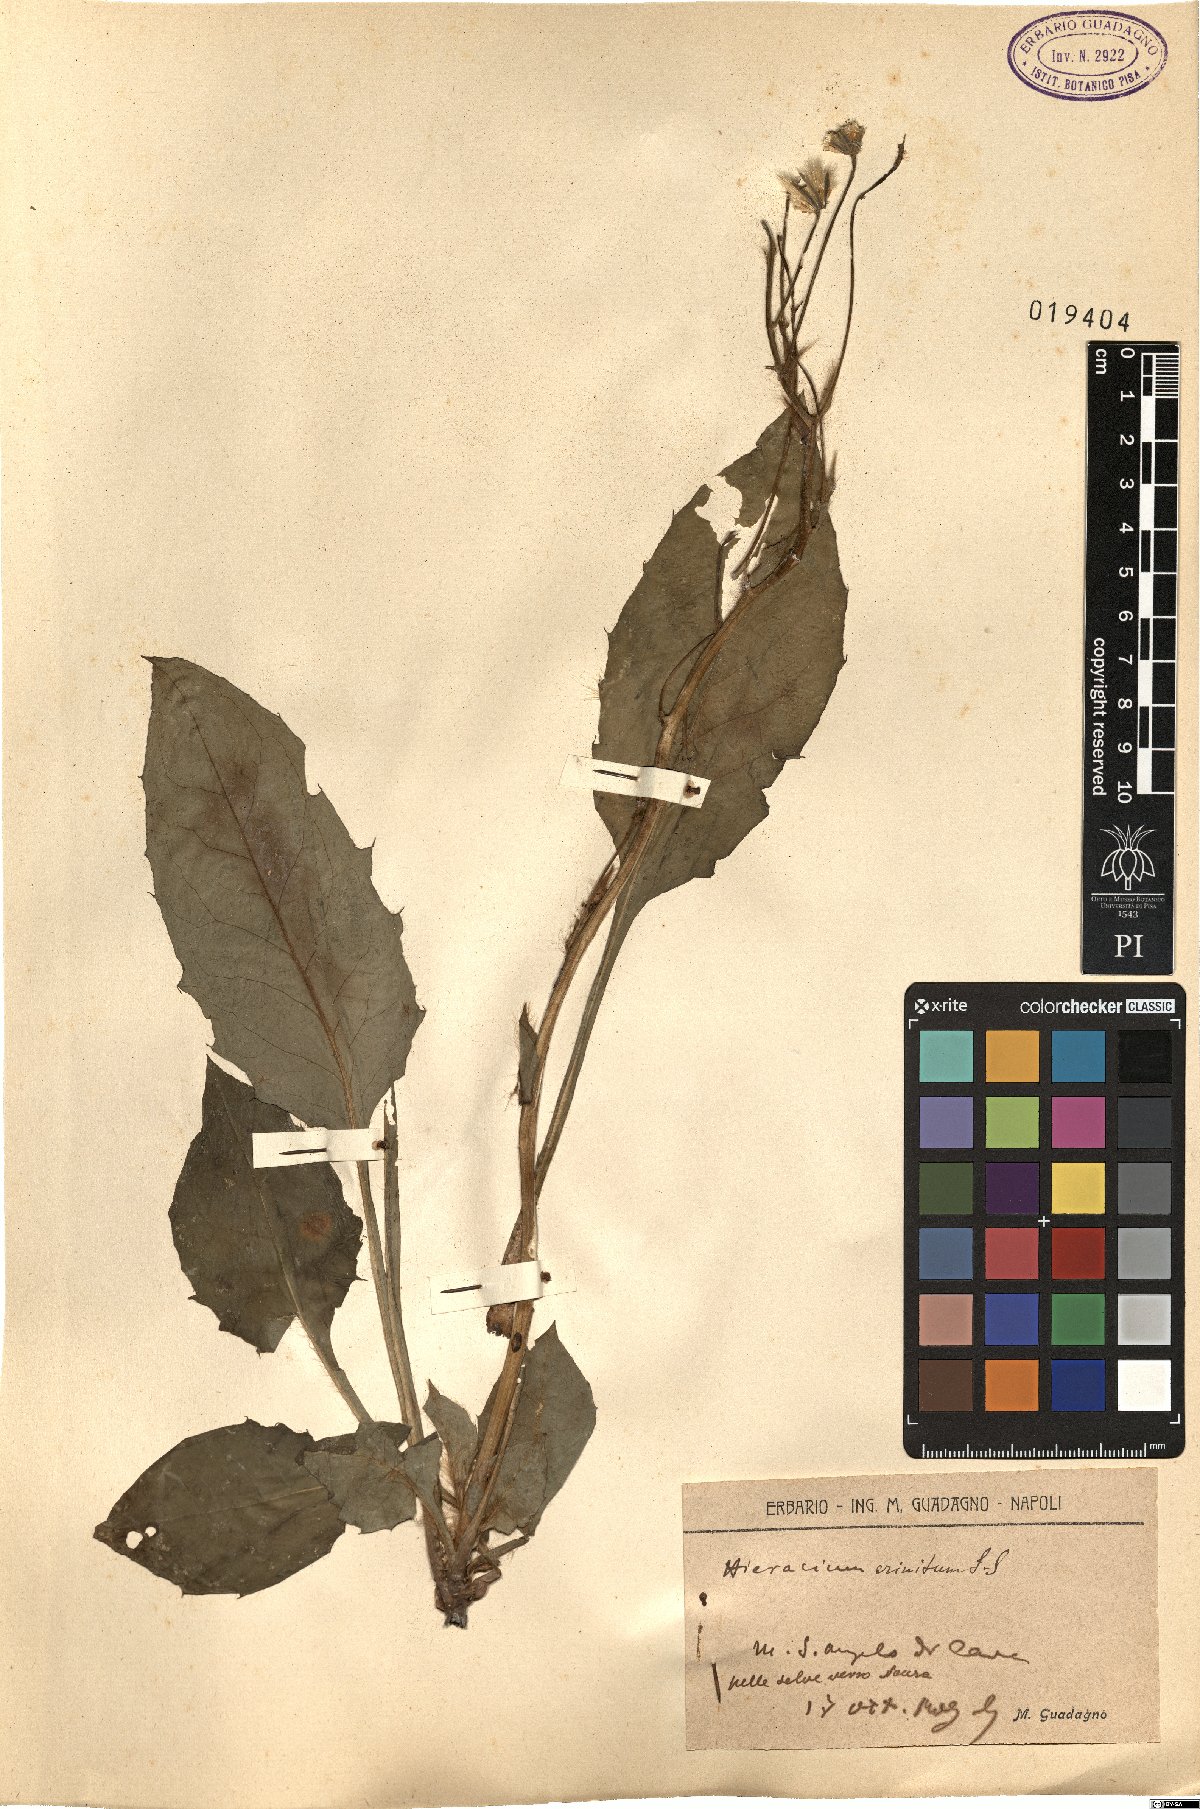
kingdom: Plantae
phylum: Tracheophyta
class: Magnoliopsida
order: Asterales
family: Asteraceae
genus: Hieracium
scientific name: Hieracium racemosum
